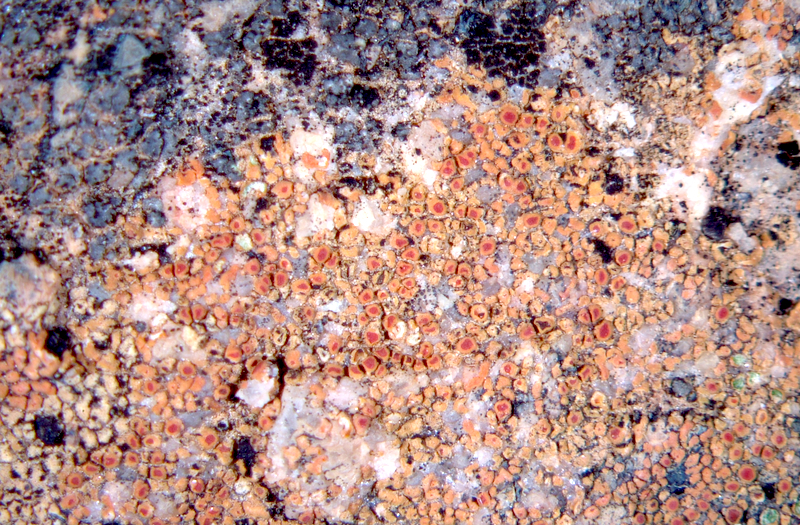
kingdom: Fungi
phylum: Ascomycota
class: Lecanoromycetes
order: Teloschistales
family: Teloschistaceae
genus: Caloplaca
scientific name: Caloplaca
